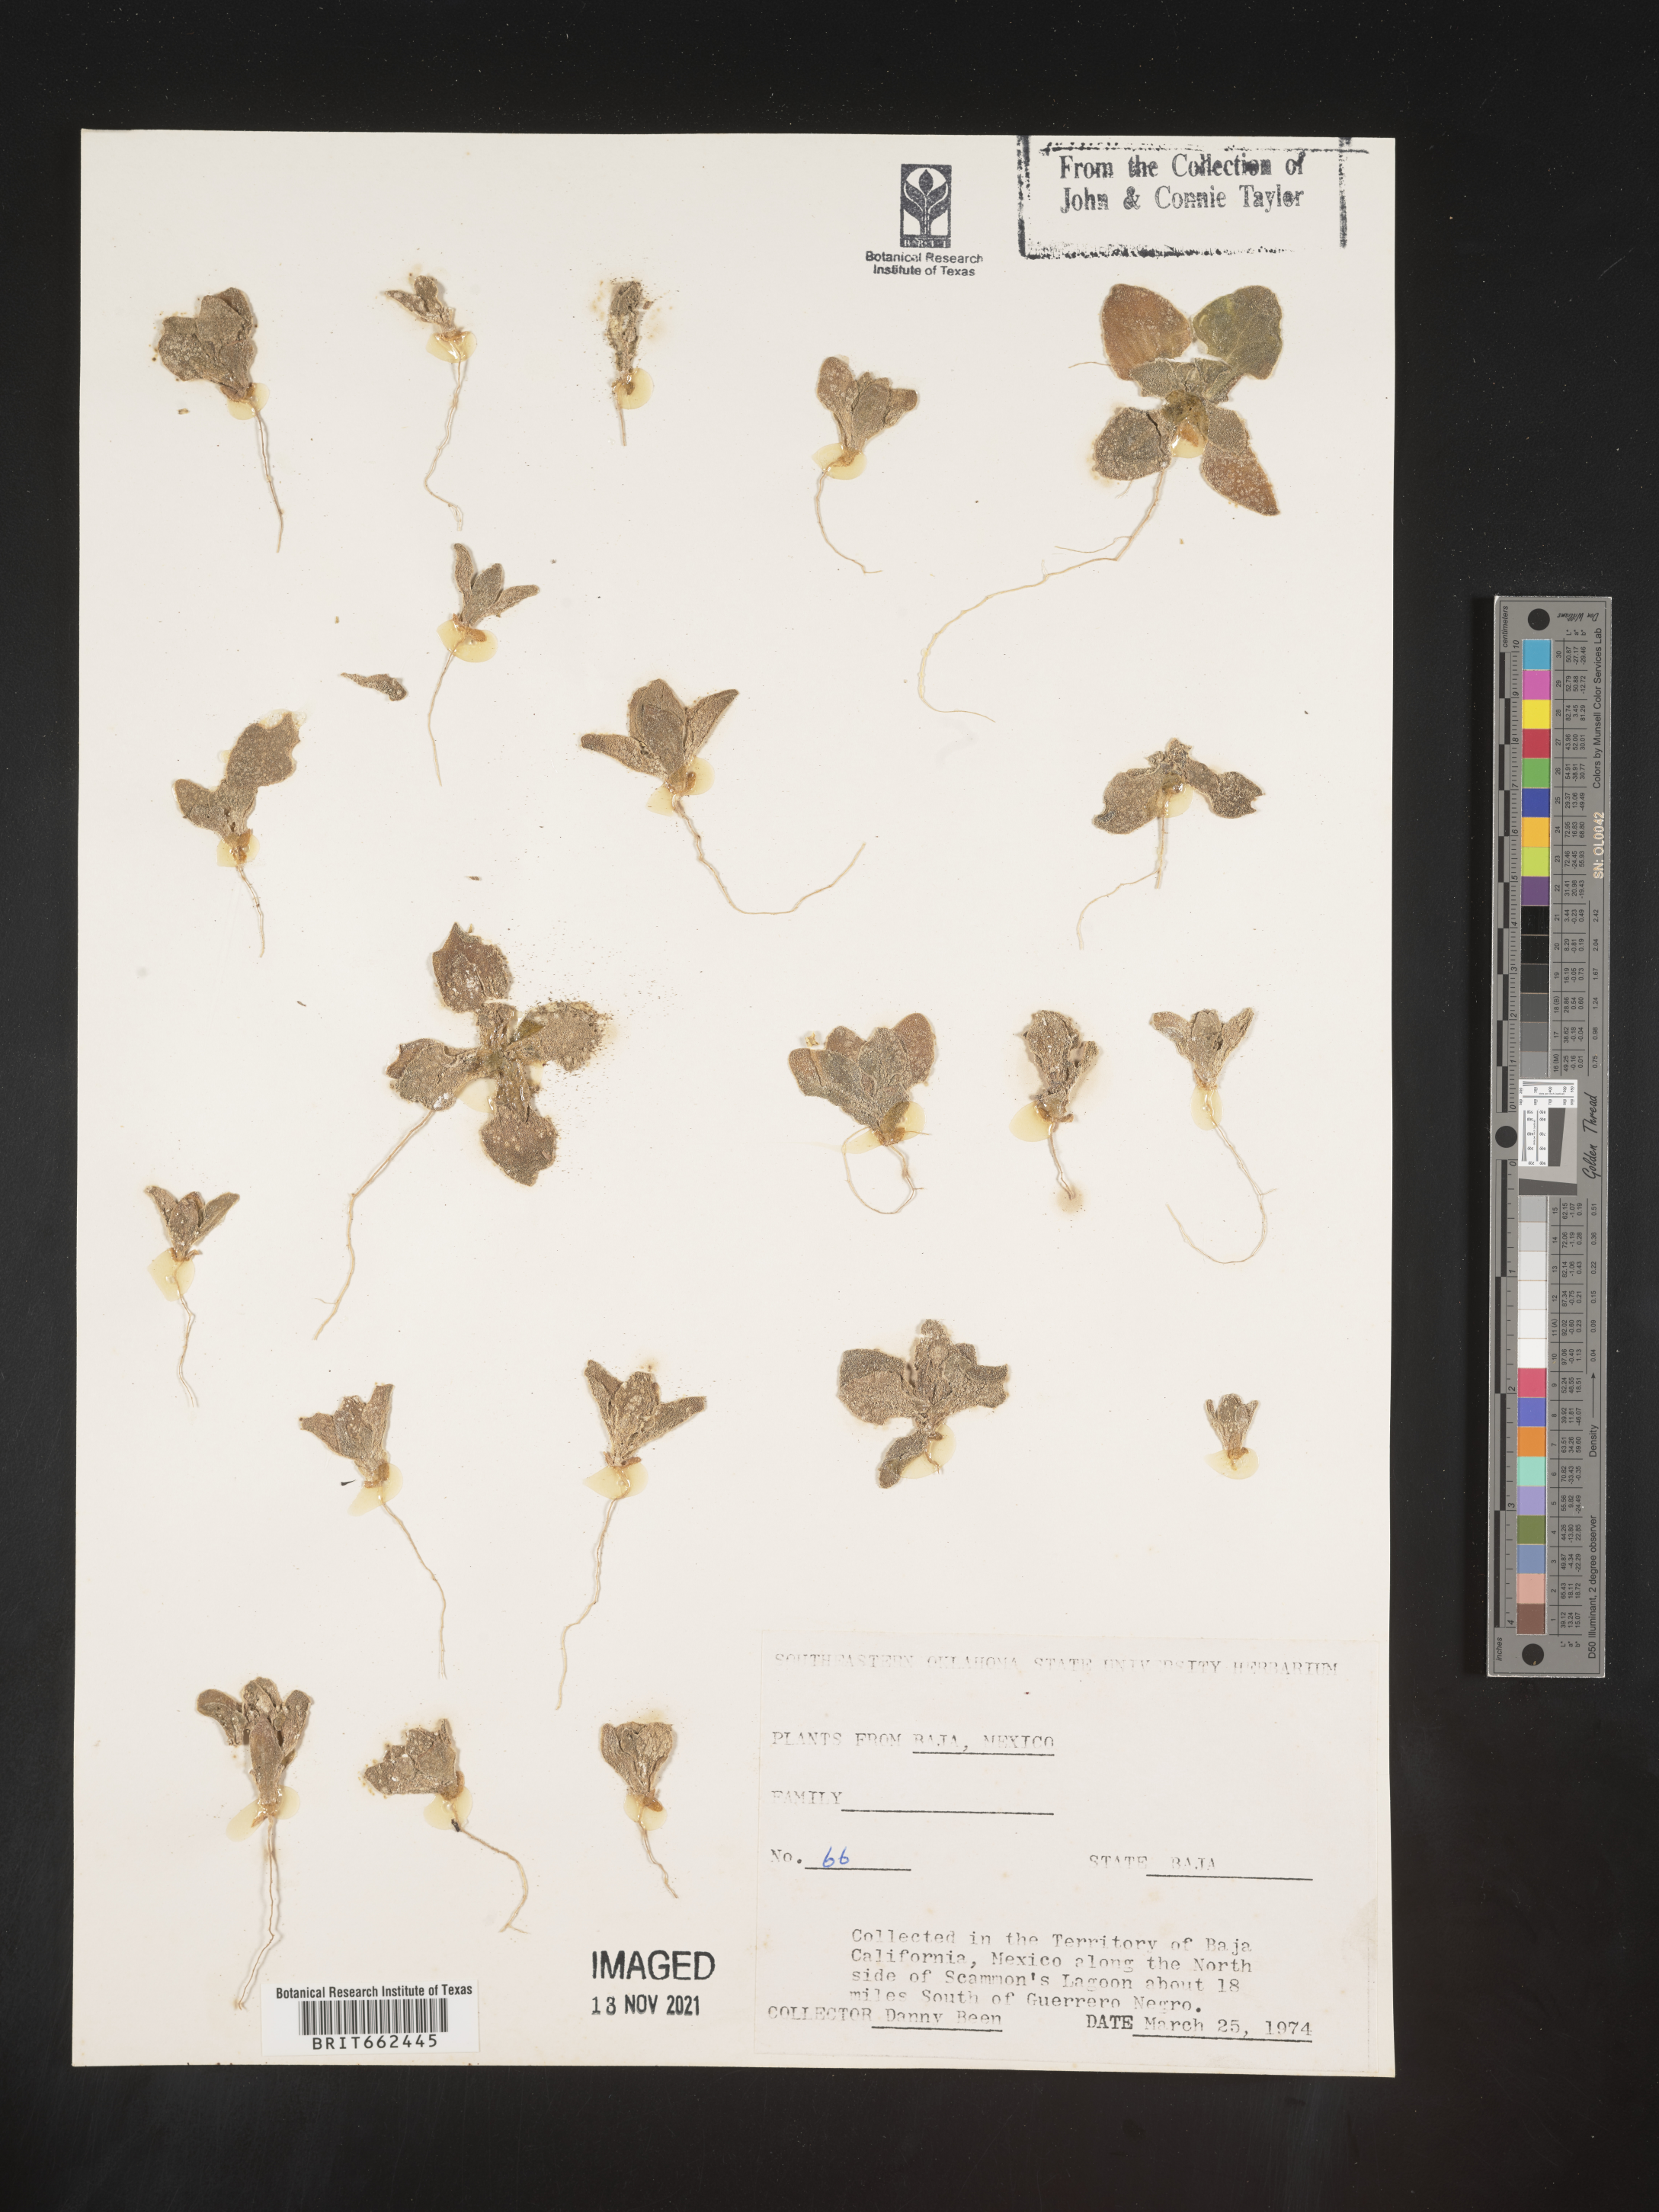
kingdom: Plantae
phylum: Tracheophyta
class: Magnoliopsida
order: Caryophyllales
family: Aizoaceae
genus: Trianthema
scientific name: Trianthema
